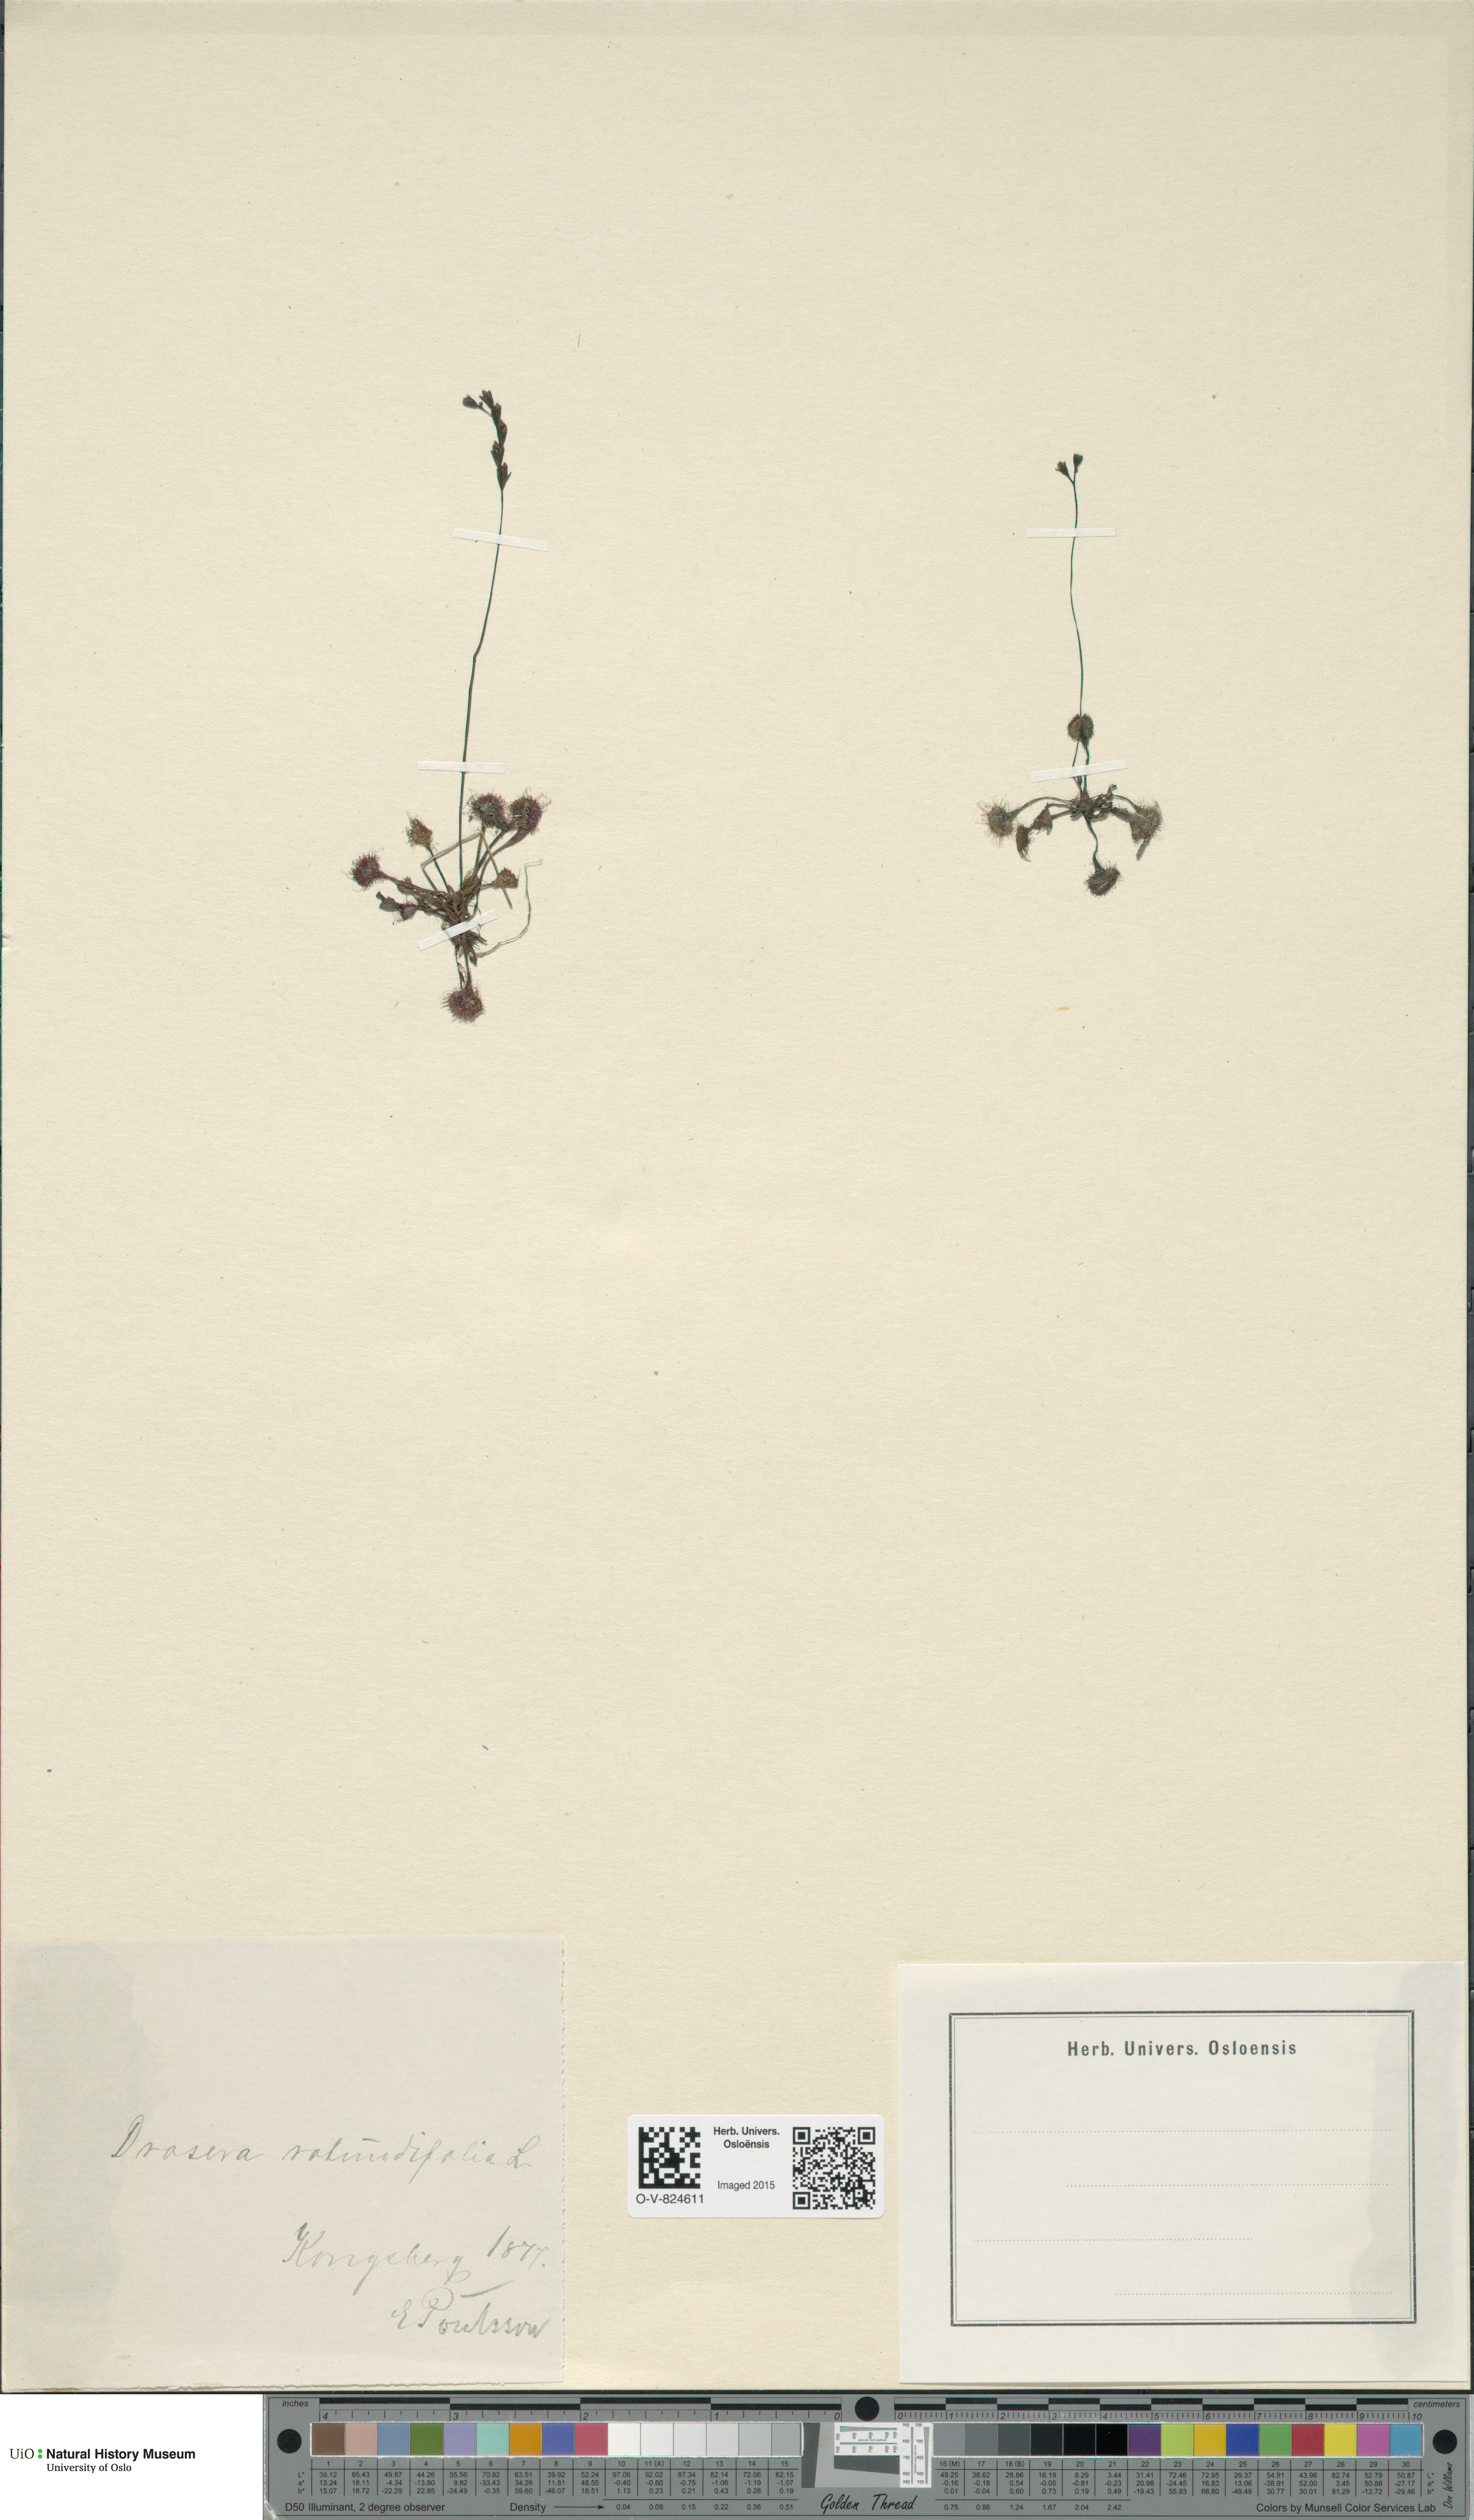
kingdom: Plantae
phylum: Tracheophyta
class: Magnoliopsida
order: Caryophyllales
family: Droseraceae
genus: Drosera
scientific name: Drosera rotundifolia
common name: Round-leaved sundew
